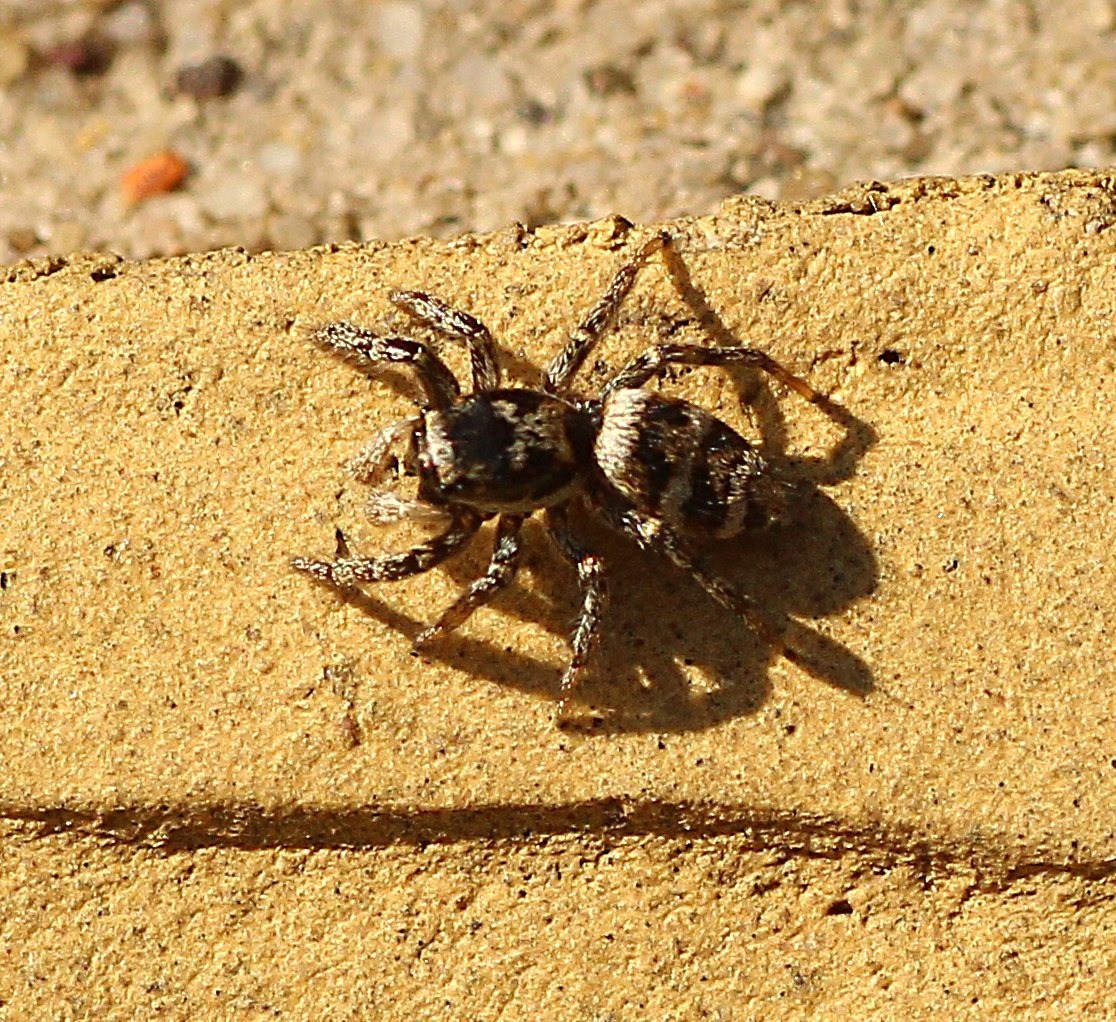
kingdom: Animalia
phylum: Arthropoda
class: Arachnida
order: Araneae
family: Salticidae
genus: Salticus
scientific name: Salticus scenicus
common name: Almindelig zebraedderkop
